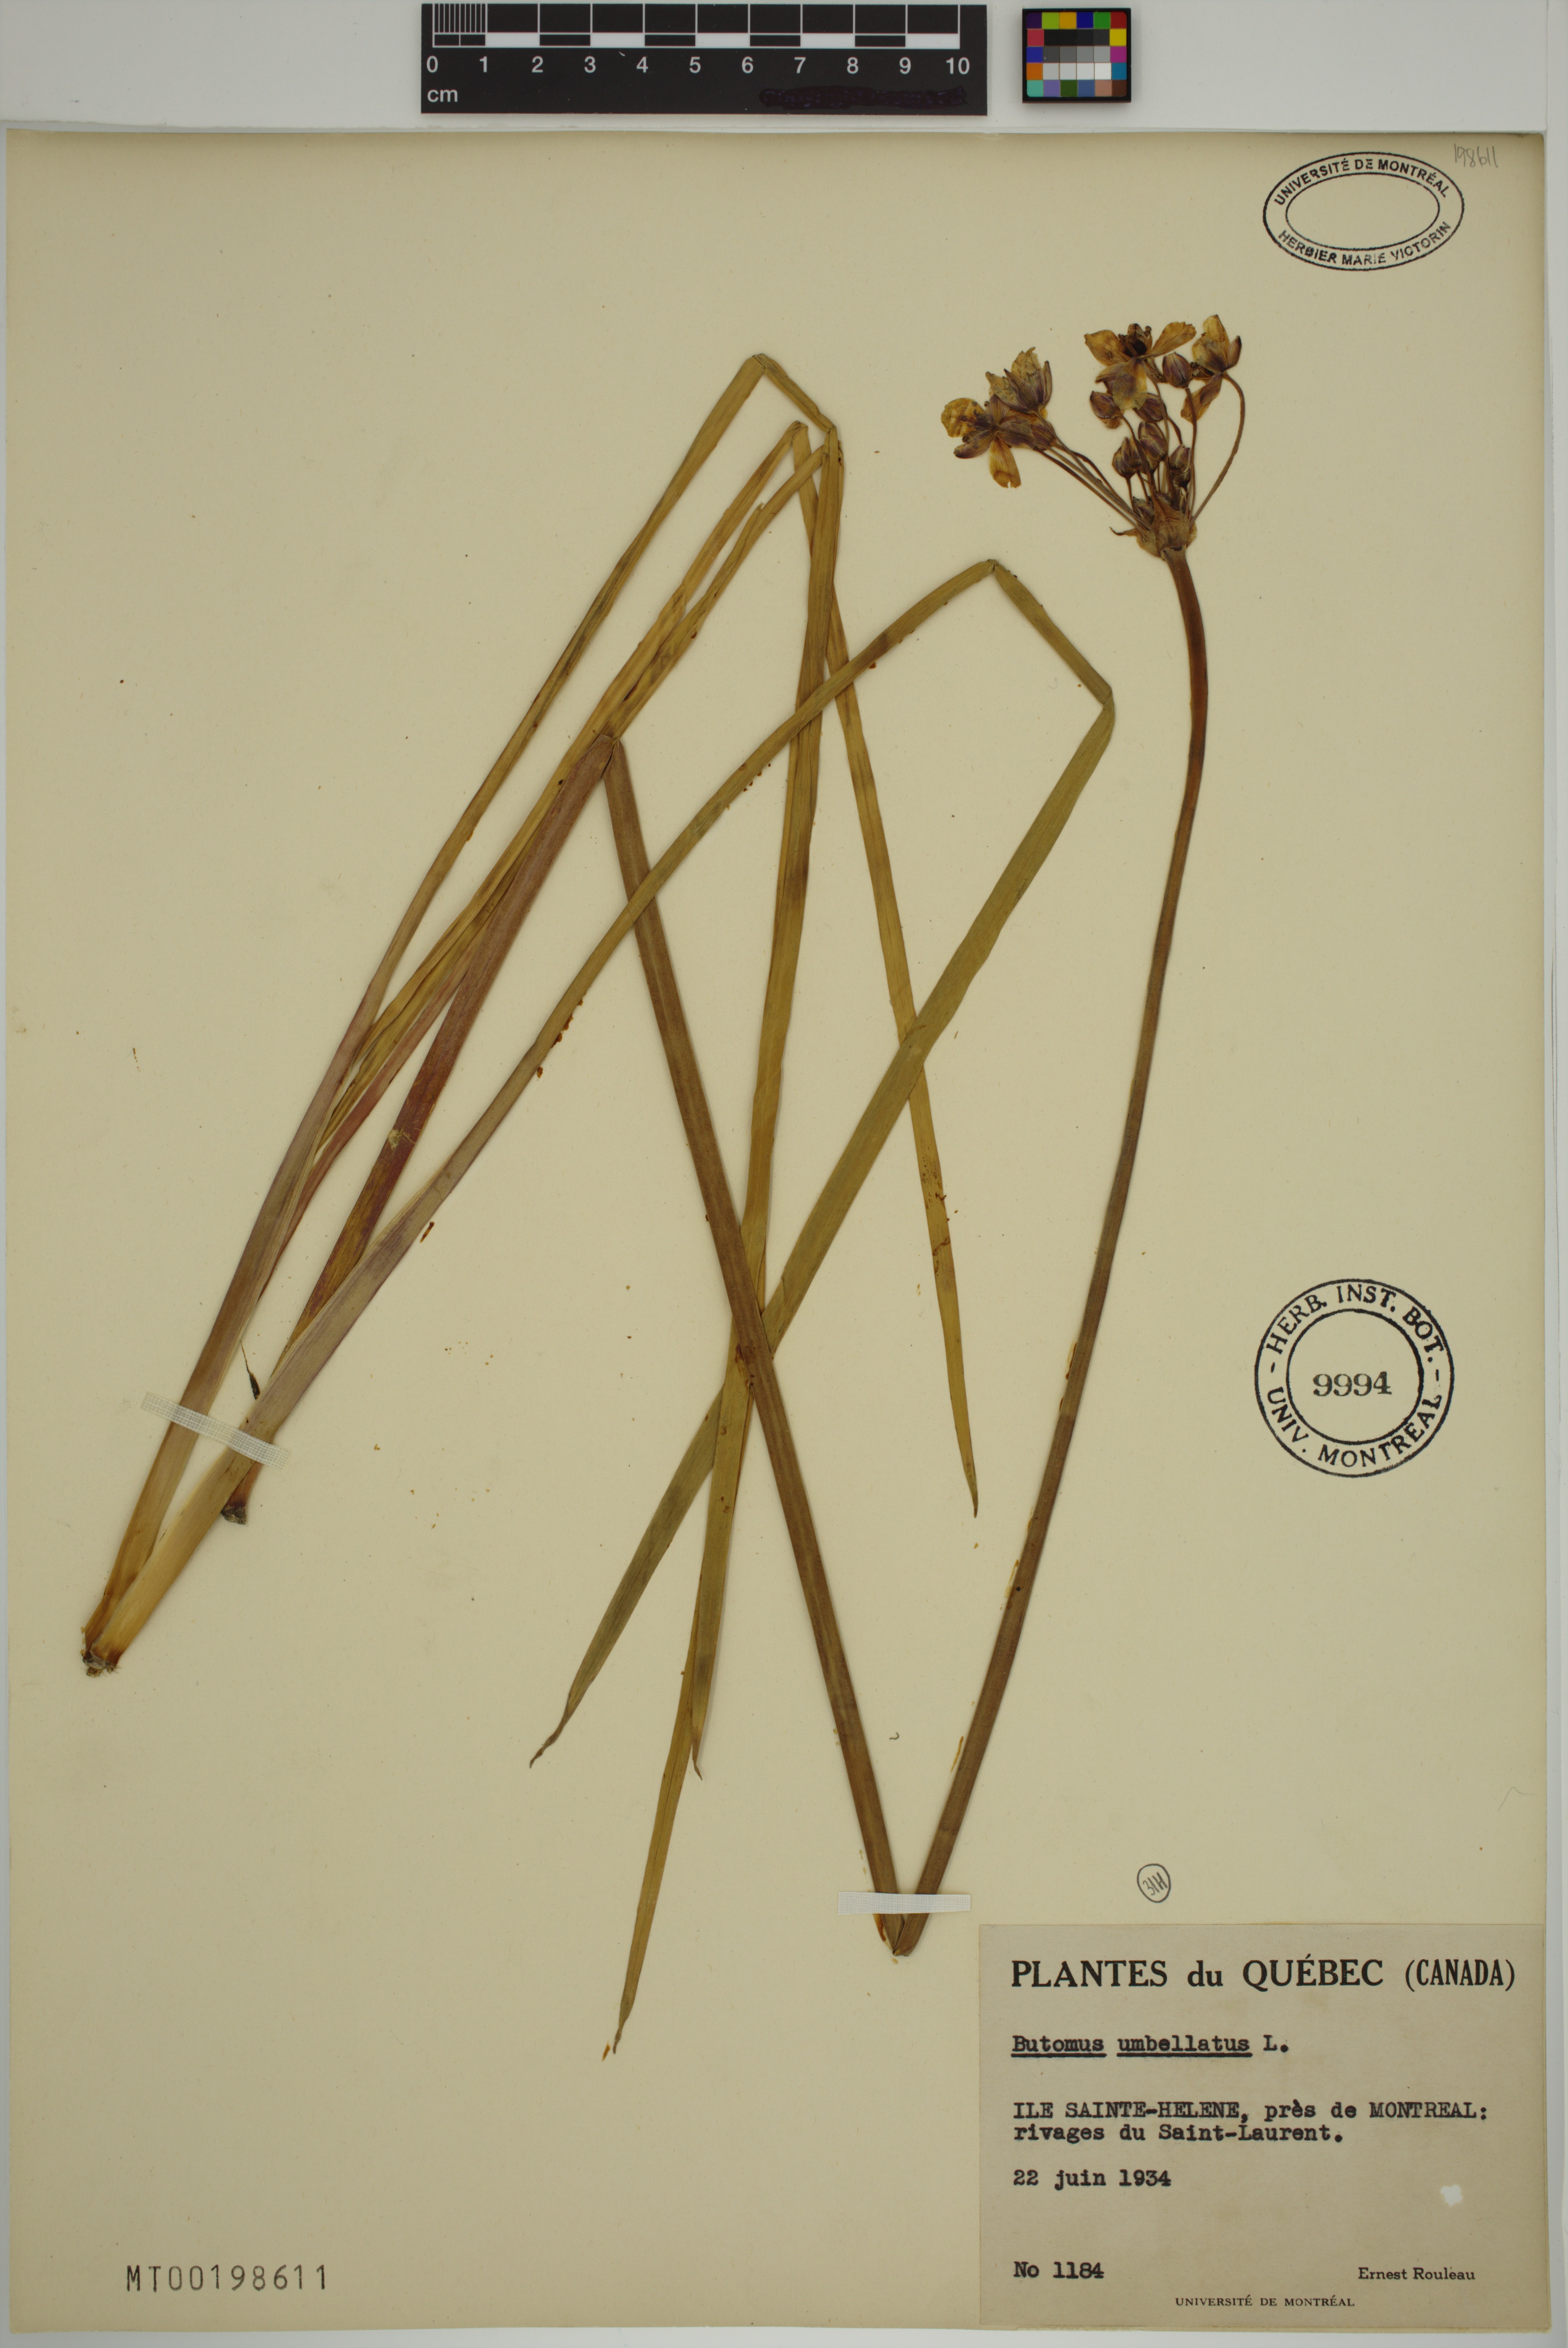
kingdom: Plantae
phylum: Tracheophyta
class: Liliopsida
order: Alismatales
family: Butomaceae
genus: Butomus
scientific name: Butomus umbellatus
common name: Flowering-rush
